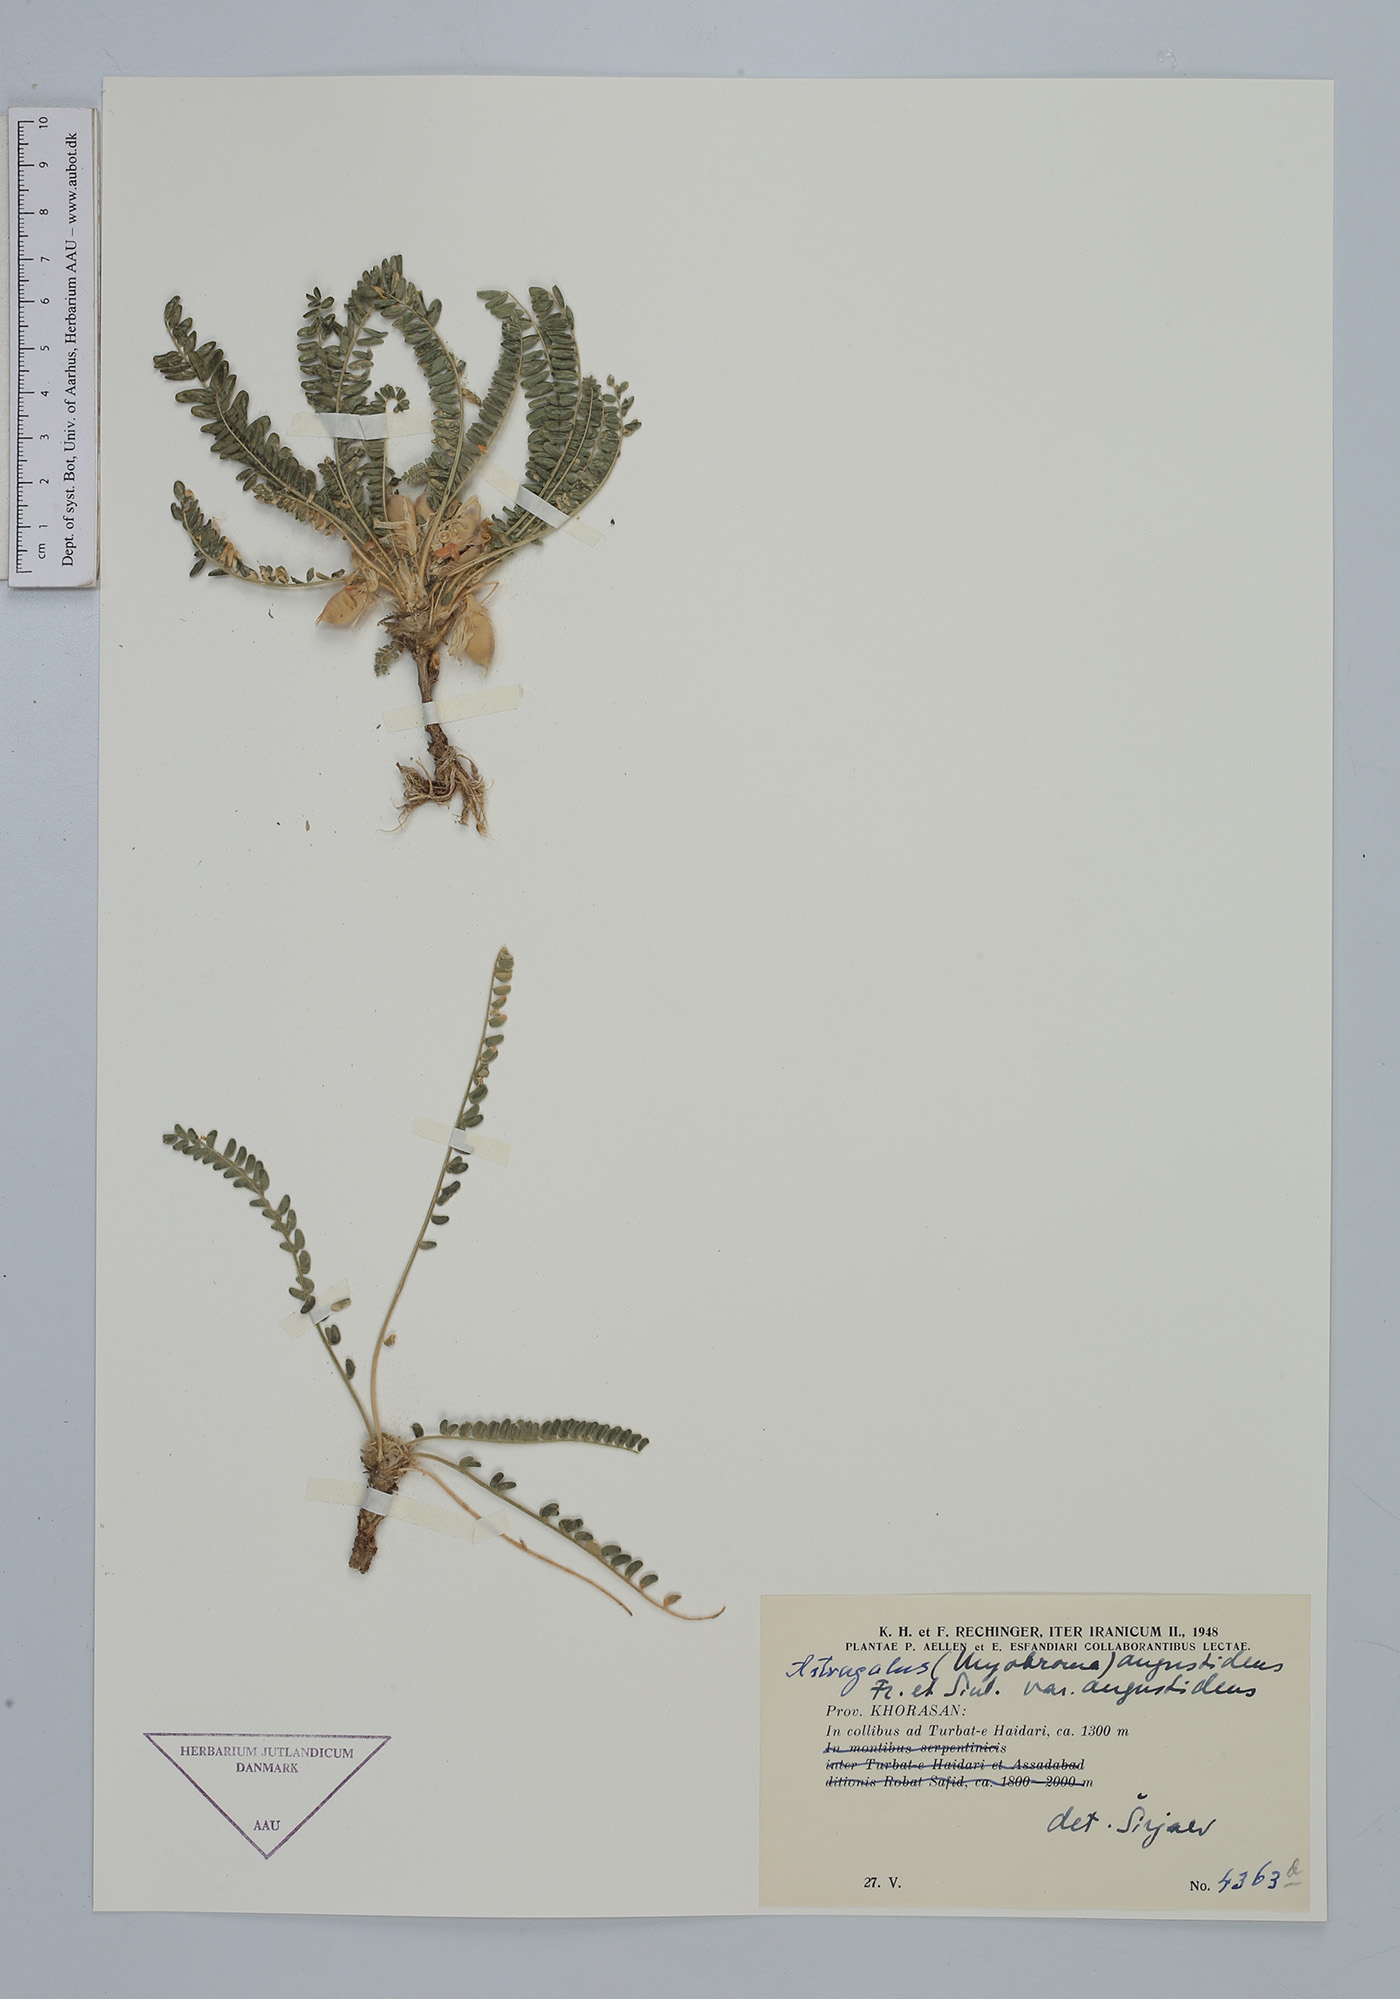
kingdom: Plantae
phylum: Tracheophyta
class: Magnoliopsida
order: Fabales
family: Fabaceae
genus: Astragalus
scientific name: Astragalus citrinus
